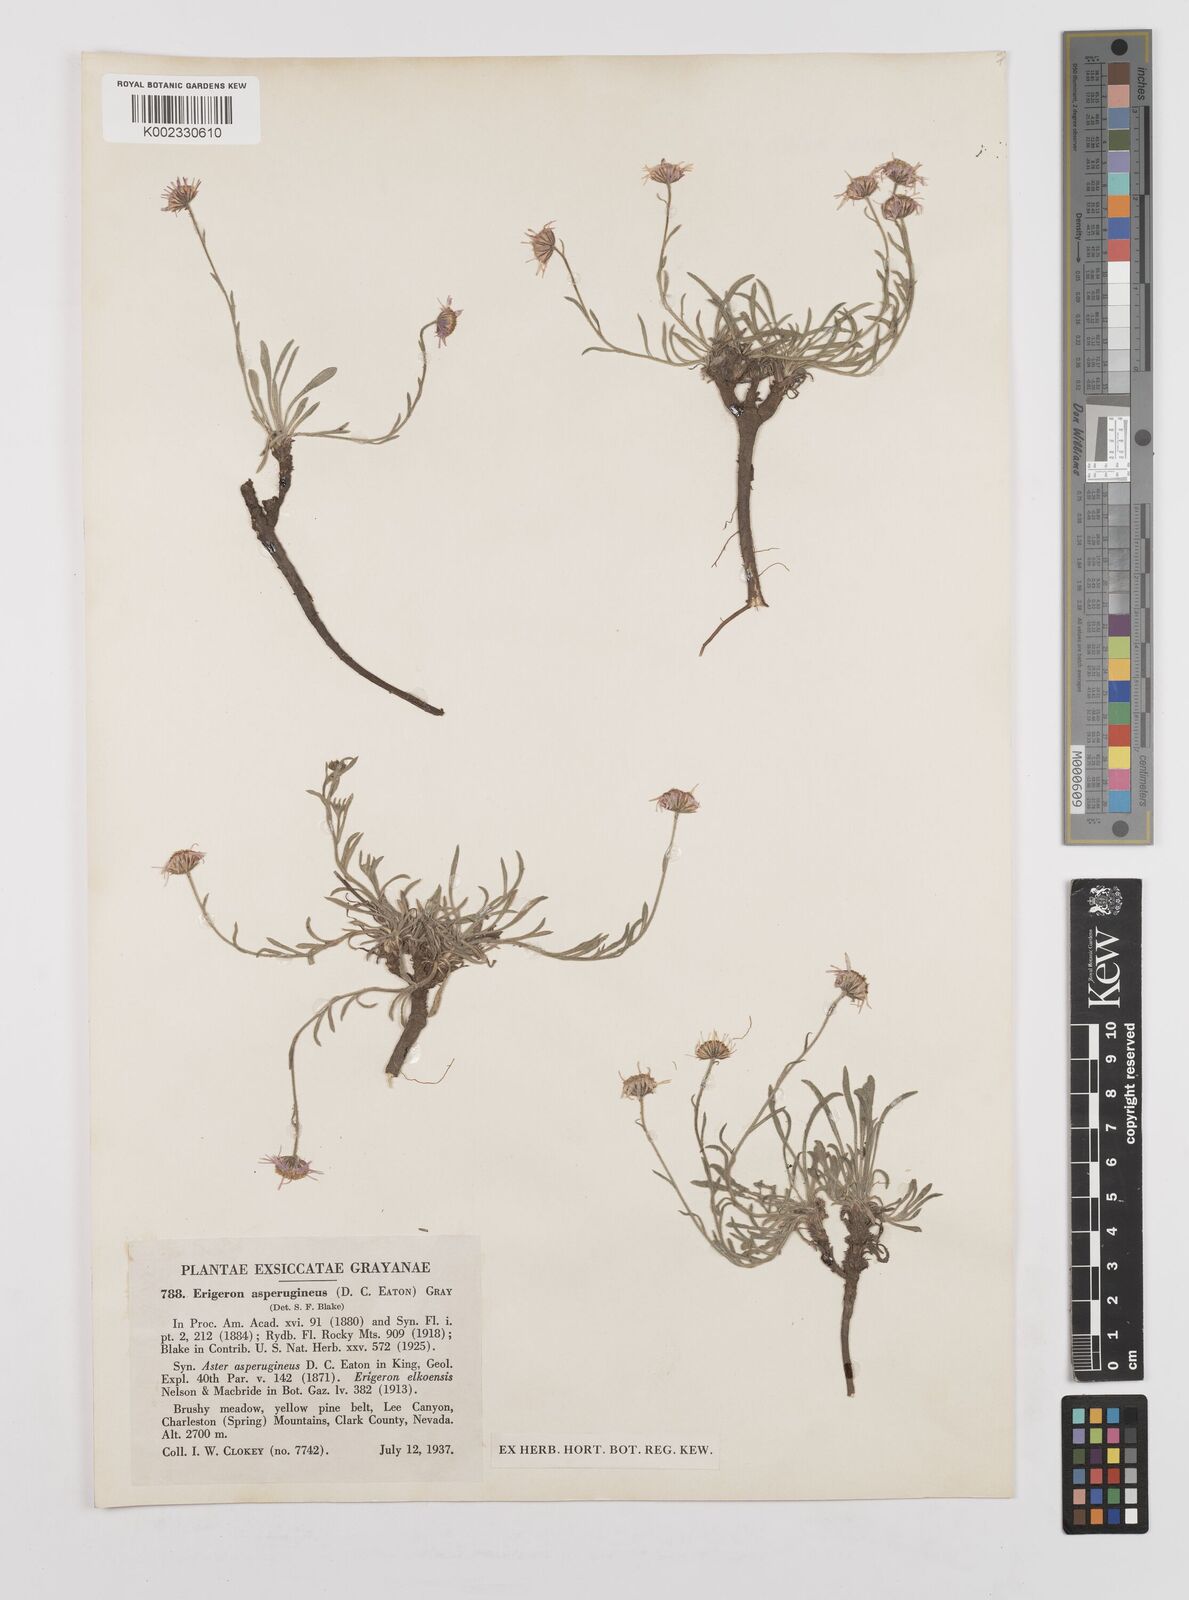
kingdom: Plantae
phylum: Tracheophyta
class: Magnoliopsida
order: Asterales
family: Asteraceae
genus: Erigeron
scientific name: Erigeron asperugineus
